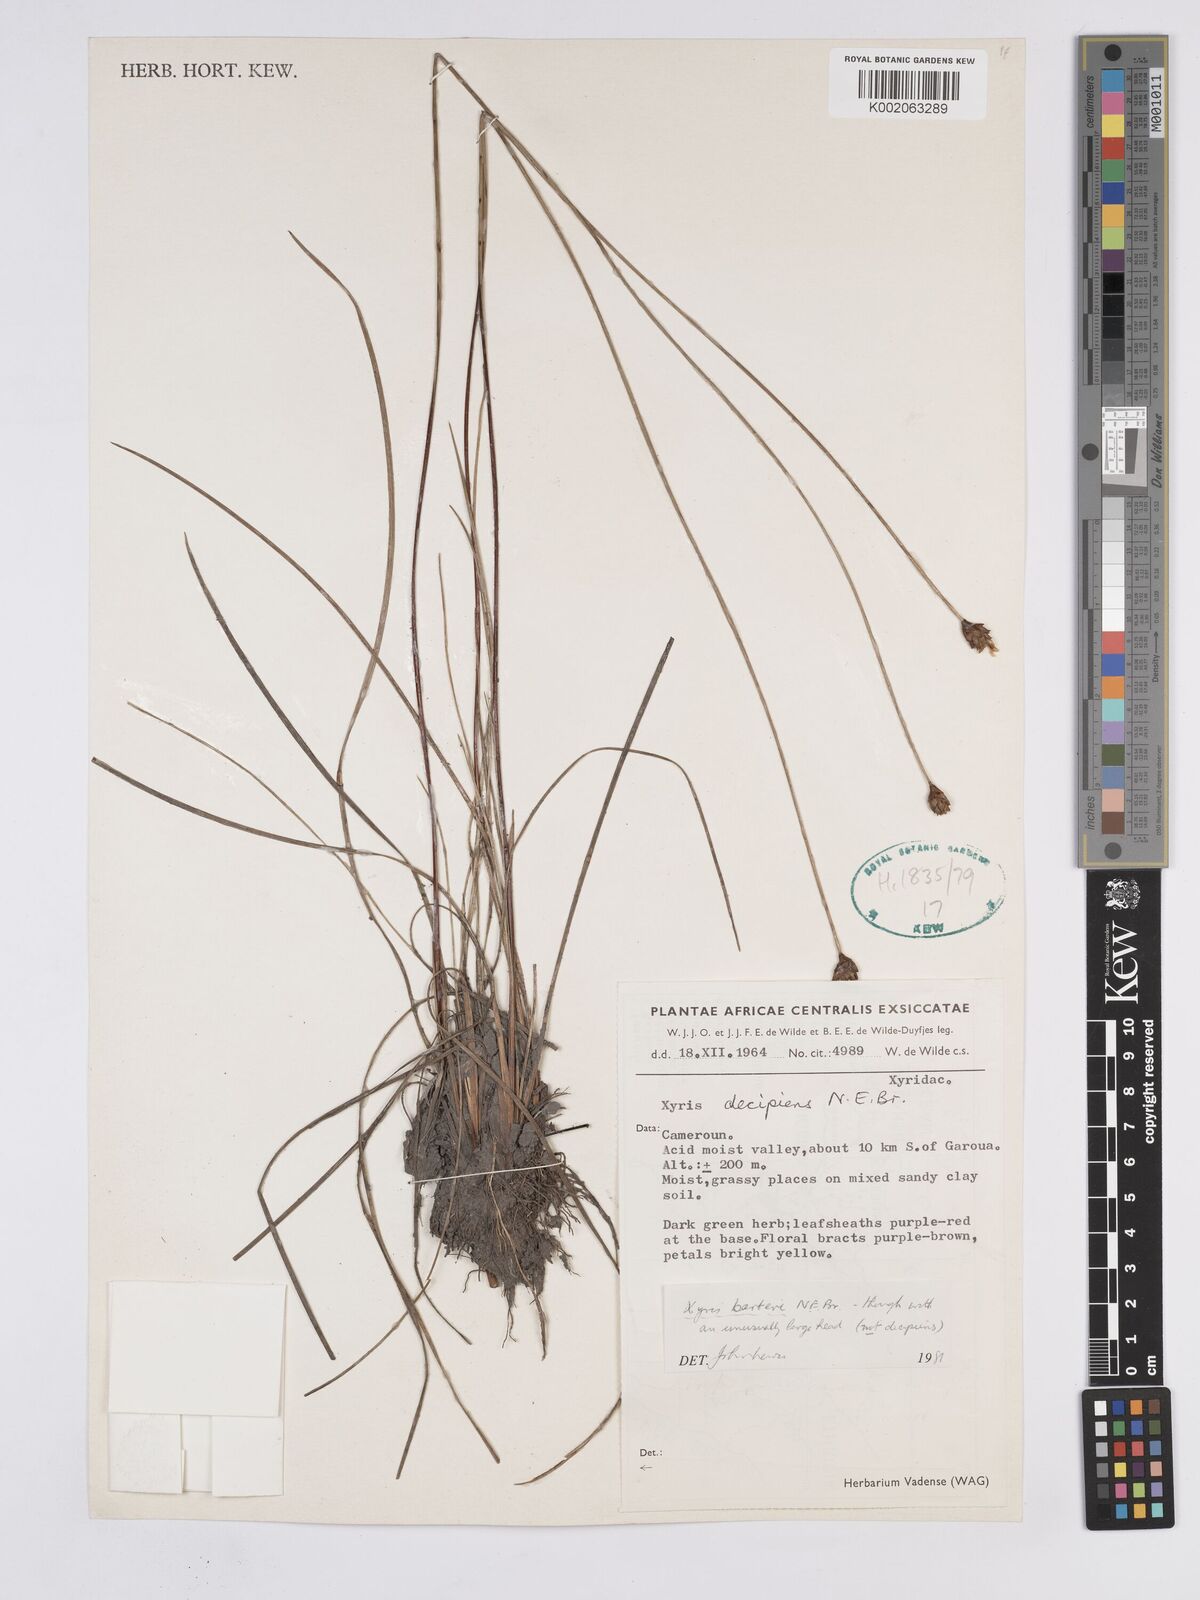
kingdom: Plantae
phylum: Tracheophyta
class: Liliopsida
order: Poales
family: Xyridaceae
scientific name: Xyridaceae
